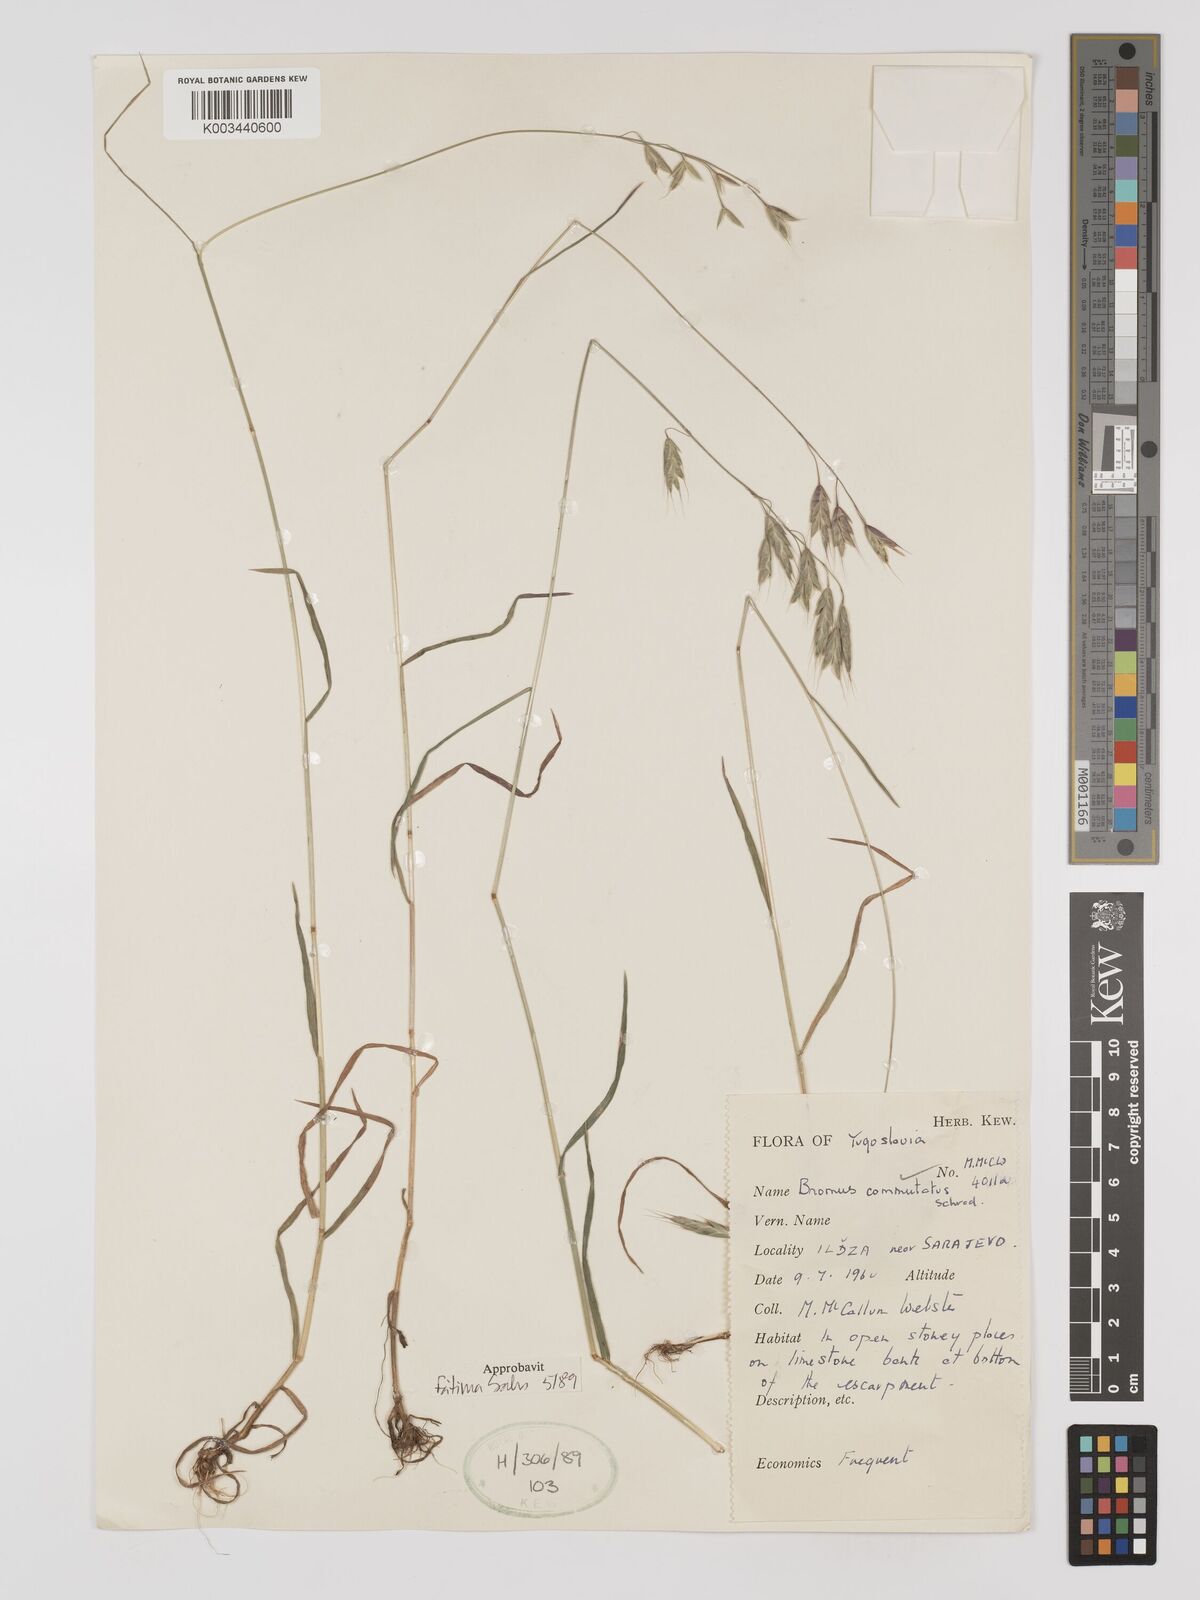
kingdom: Plantae
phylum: Tracheophyta
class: Liliopsida
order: Poales
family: Poaceae
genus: Bromus
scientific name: Bromus racemosus
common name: Bald brome
